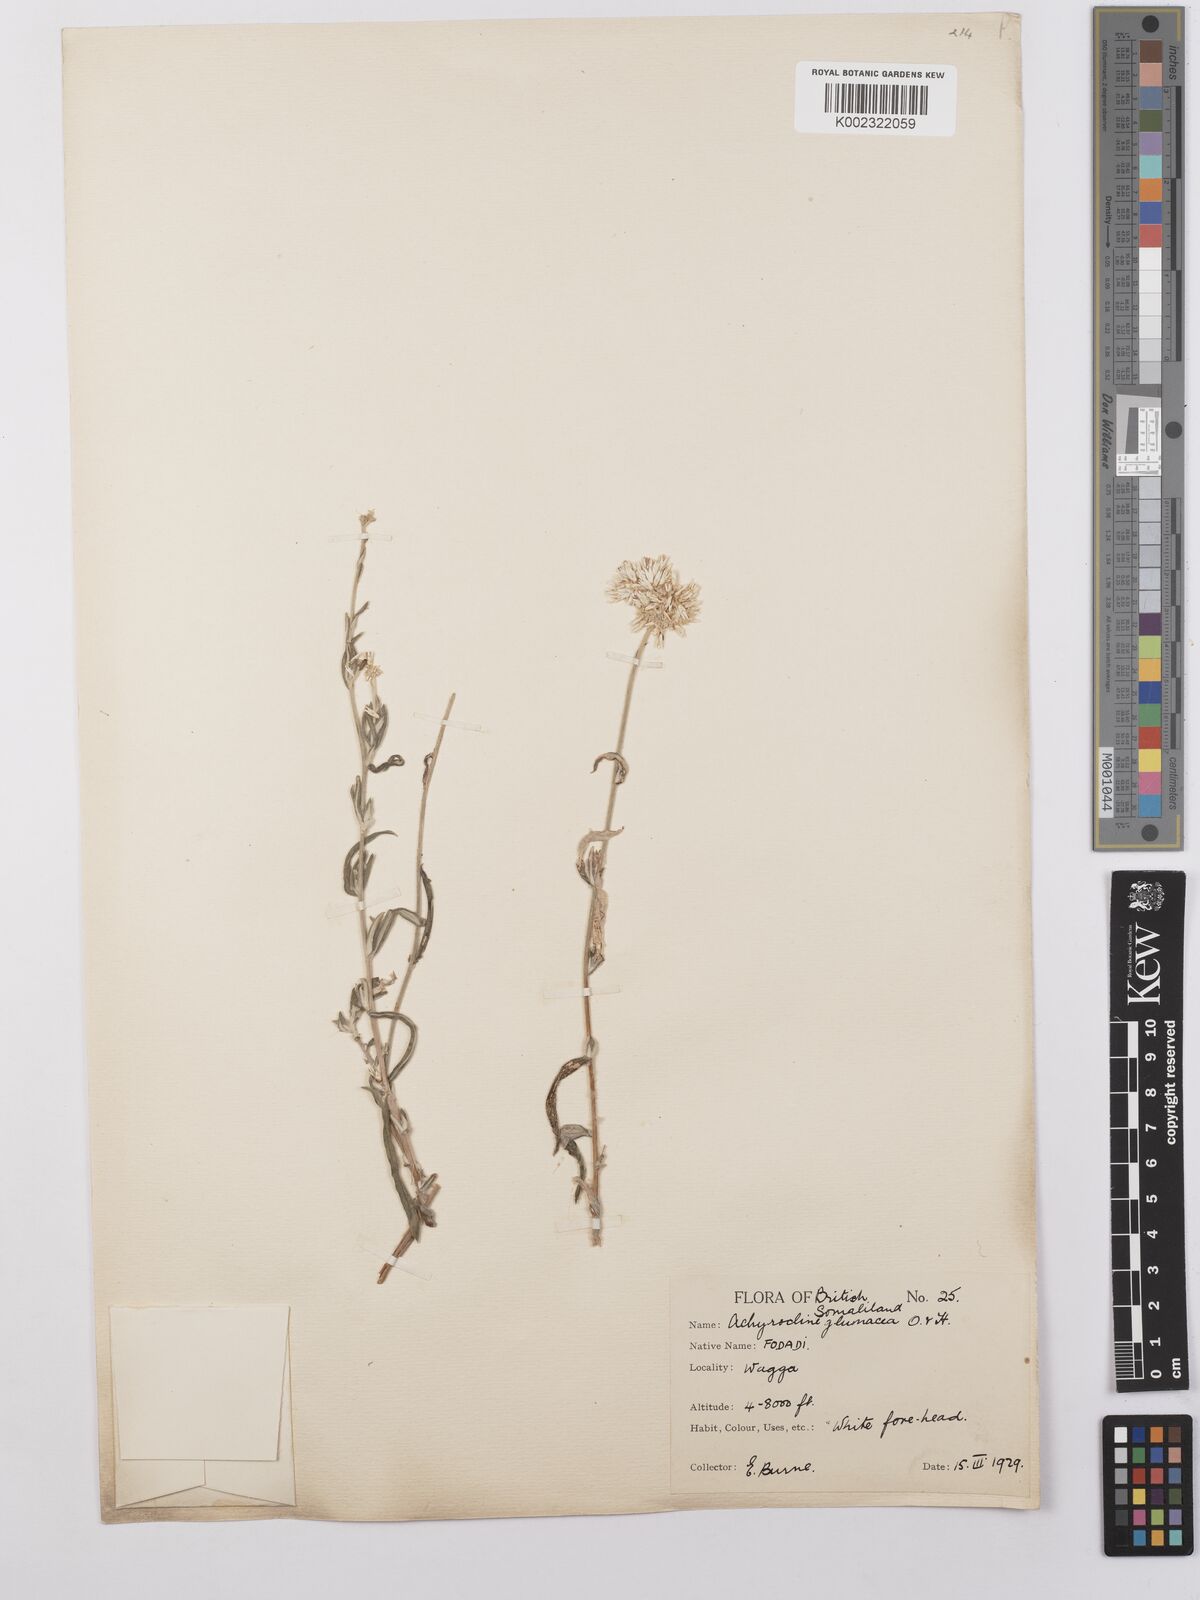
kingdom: Plantae
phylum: Tracheophyta
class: Magnoliopsida
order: Asterales
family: Asteraceae
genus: Helichrysum
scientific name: Helichrysum glumaceum
